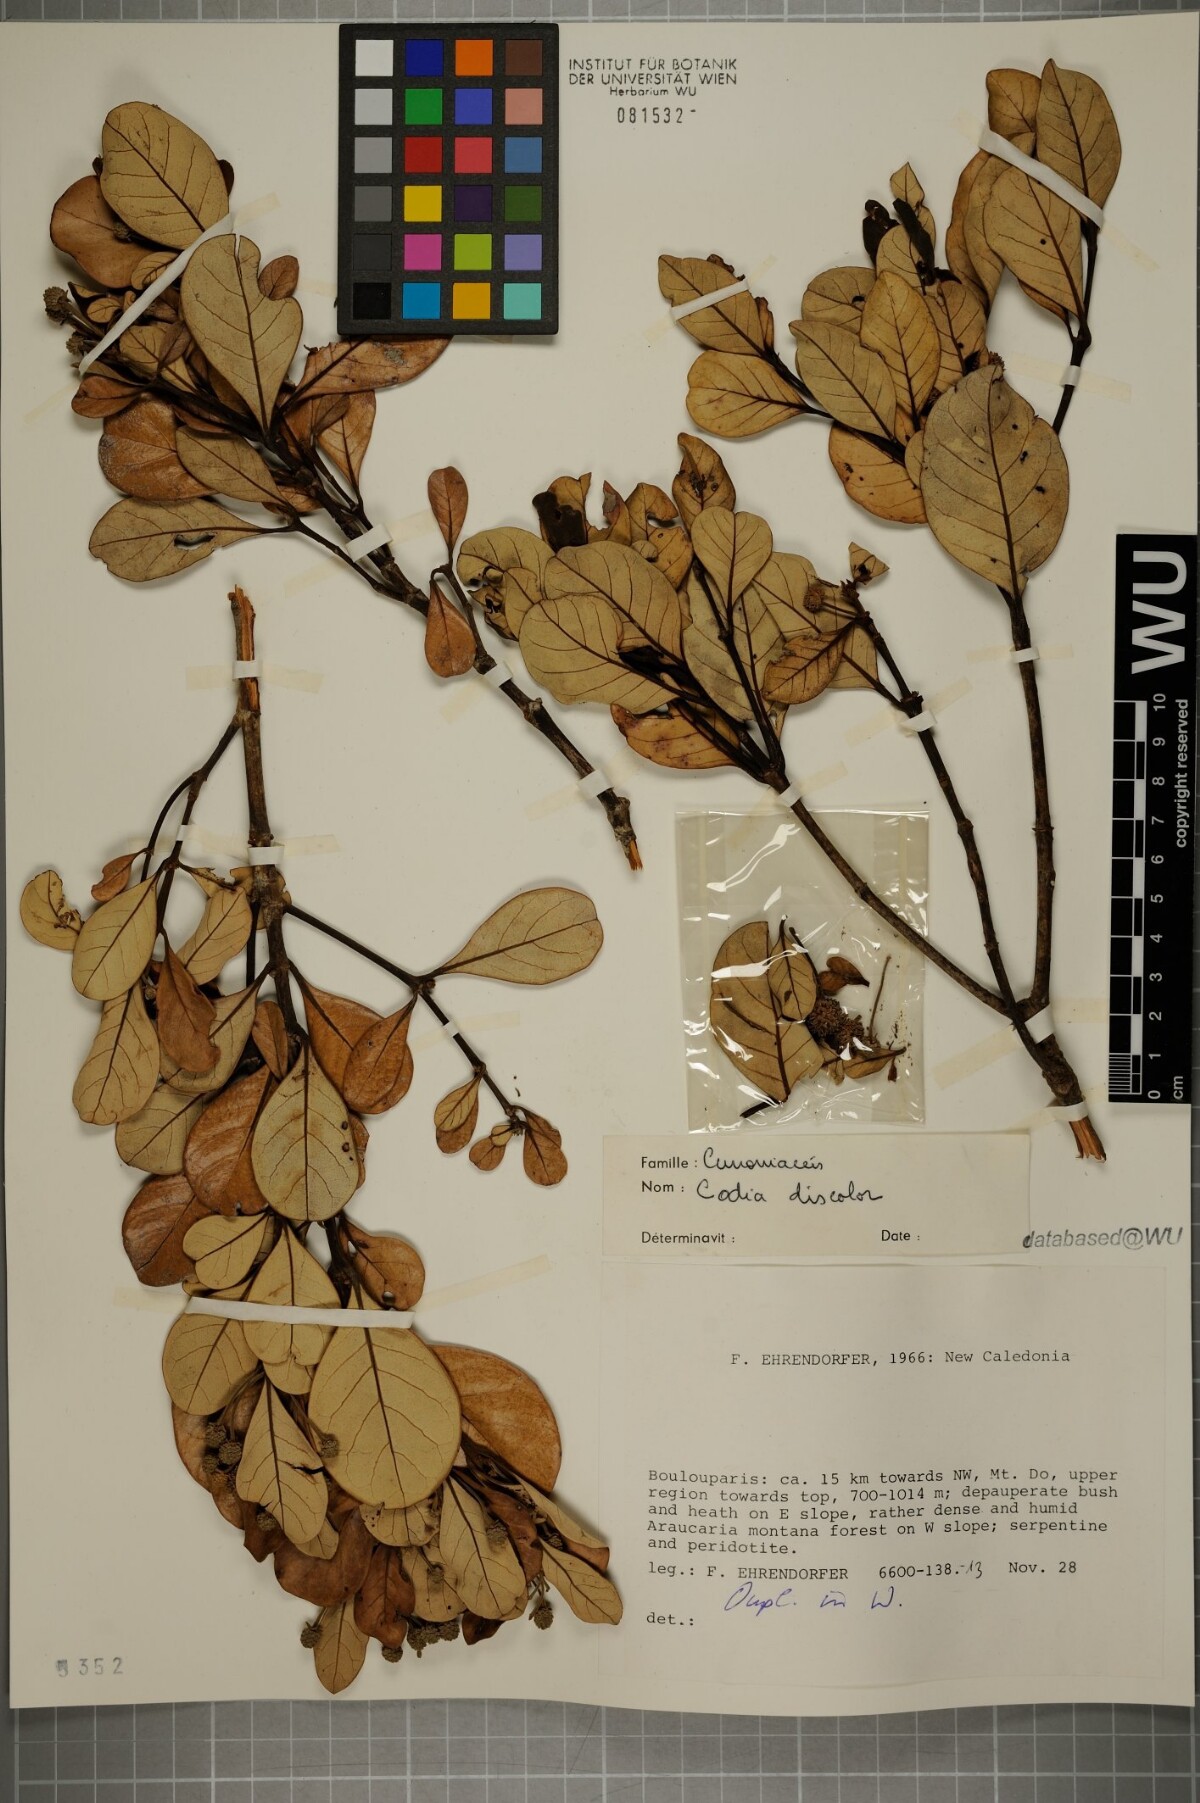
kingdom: Plantae
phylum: Tracheophyta
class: Magnoliopsida
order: Oxalidales
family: Cunoniaceae
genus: Codia
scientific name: Codia discolor
